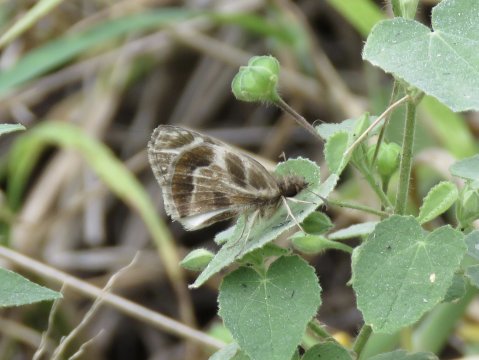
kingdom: Animalia
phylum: Arthropoda
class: Insecta
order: Lepidoptera
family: Hesperiidae
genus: Heliopetes
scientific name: Heliopetes macaira
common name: Turk's-cap White-Skipper
